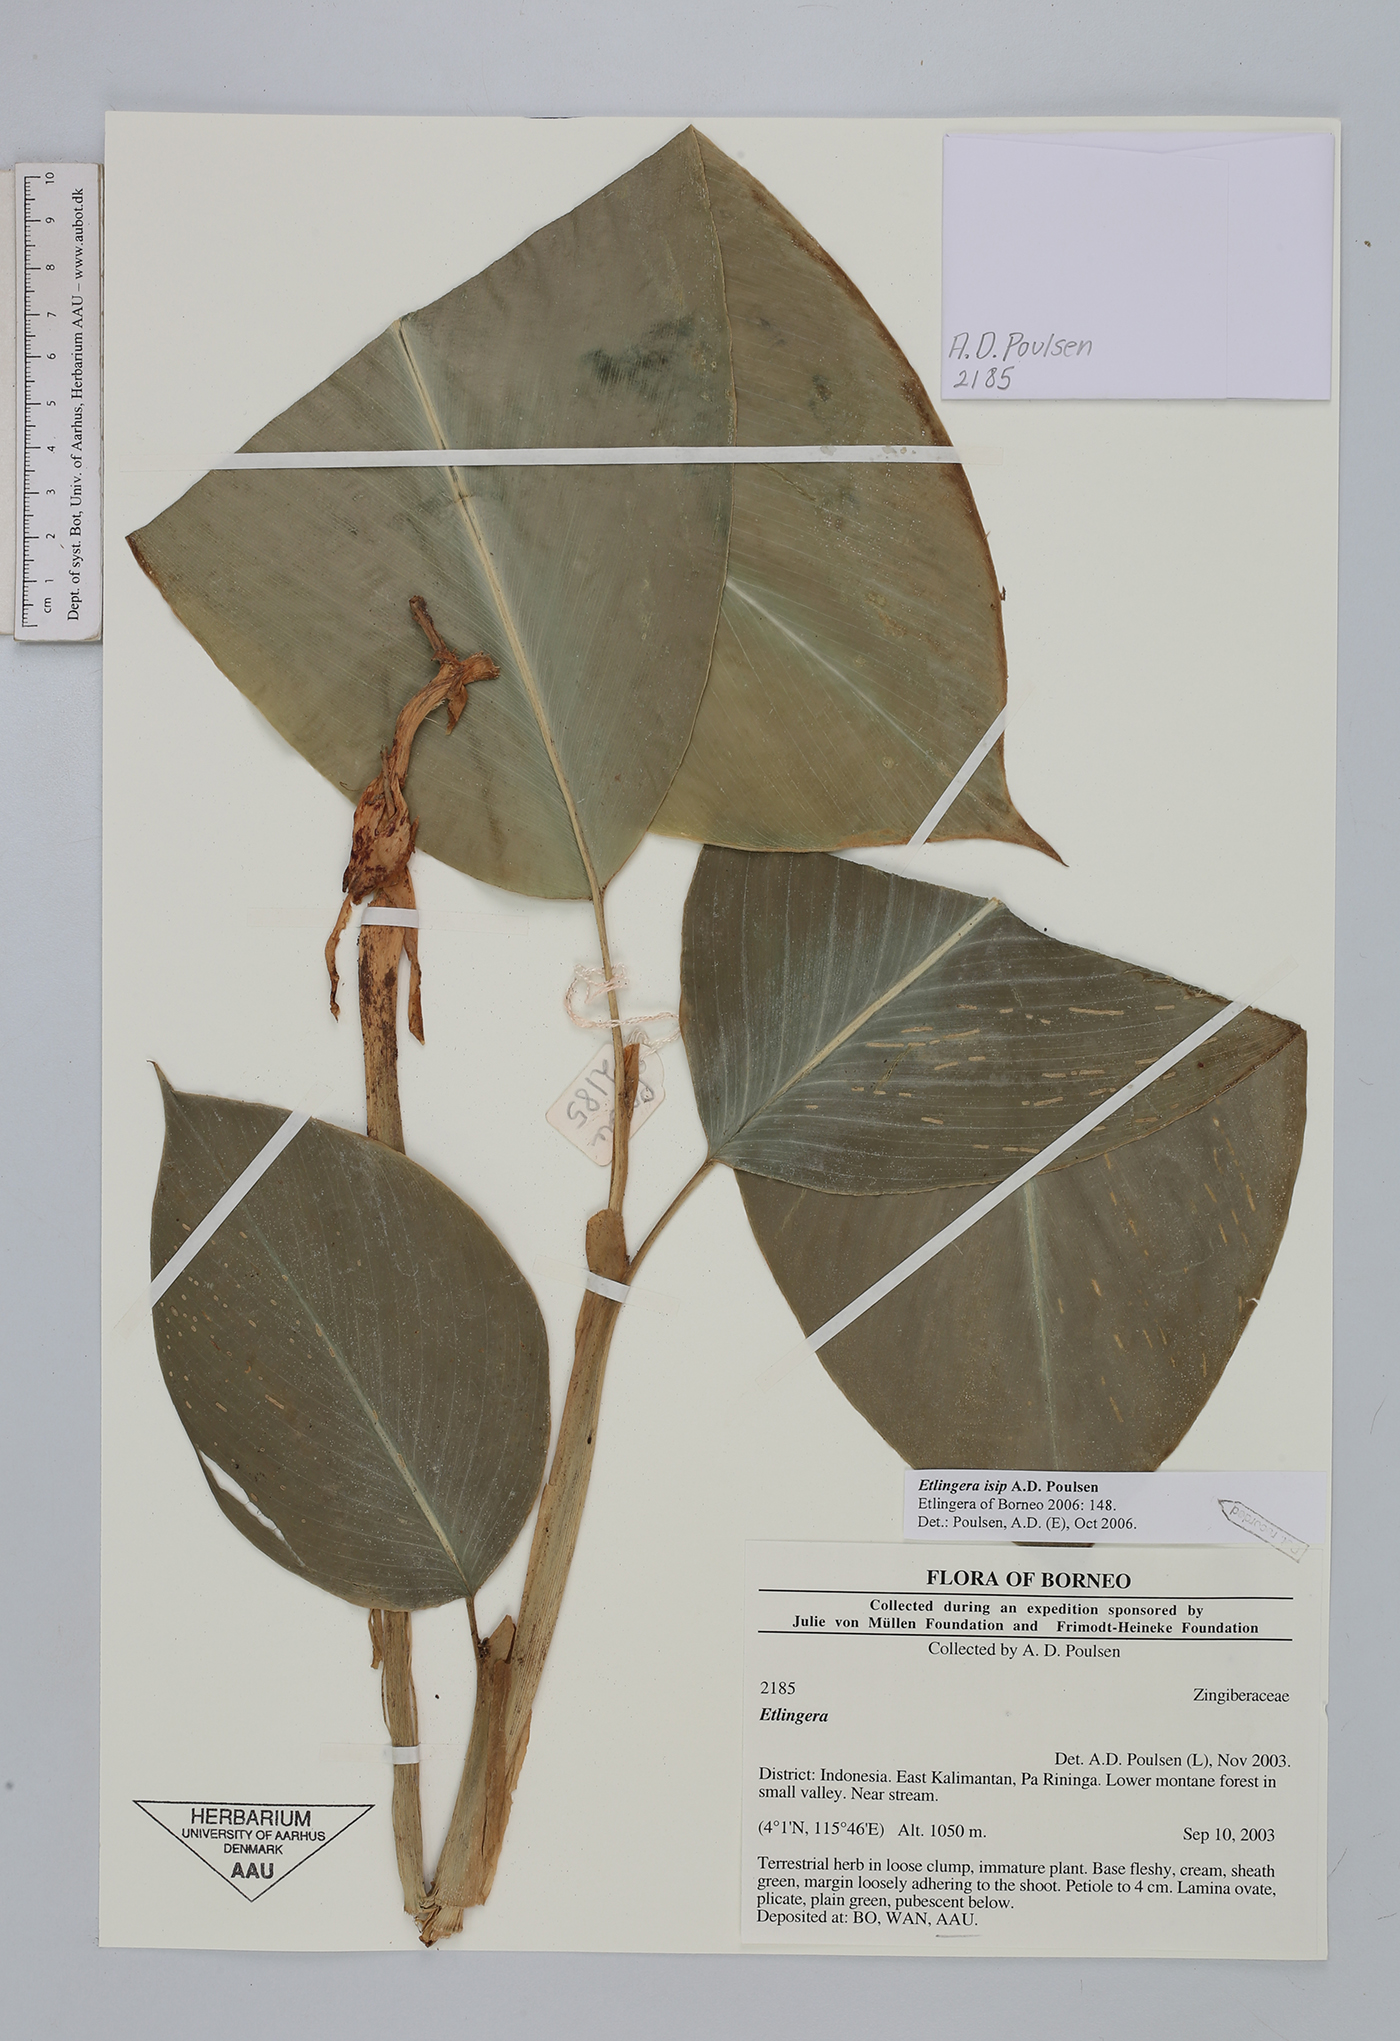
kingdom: Plantae
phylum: Tracheophyta
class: Liliopsida
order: Zingiberales
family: Zingiberaceae
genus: Etlingera
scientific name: Etlingera isip
